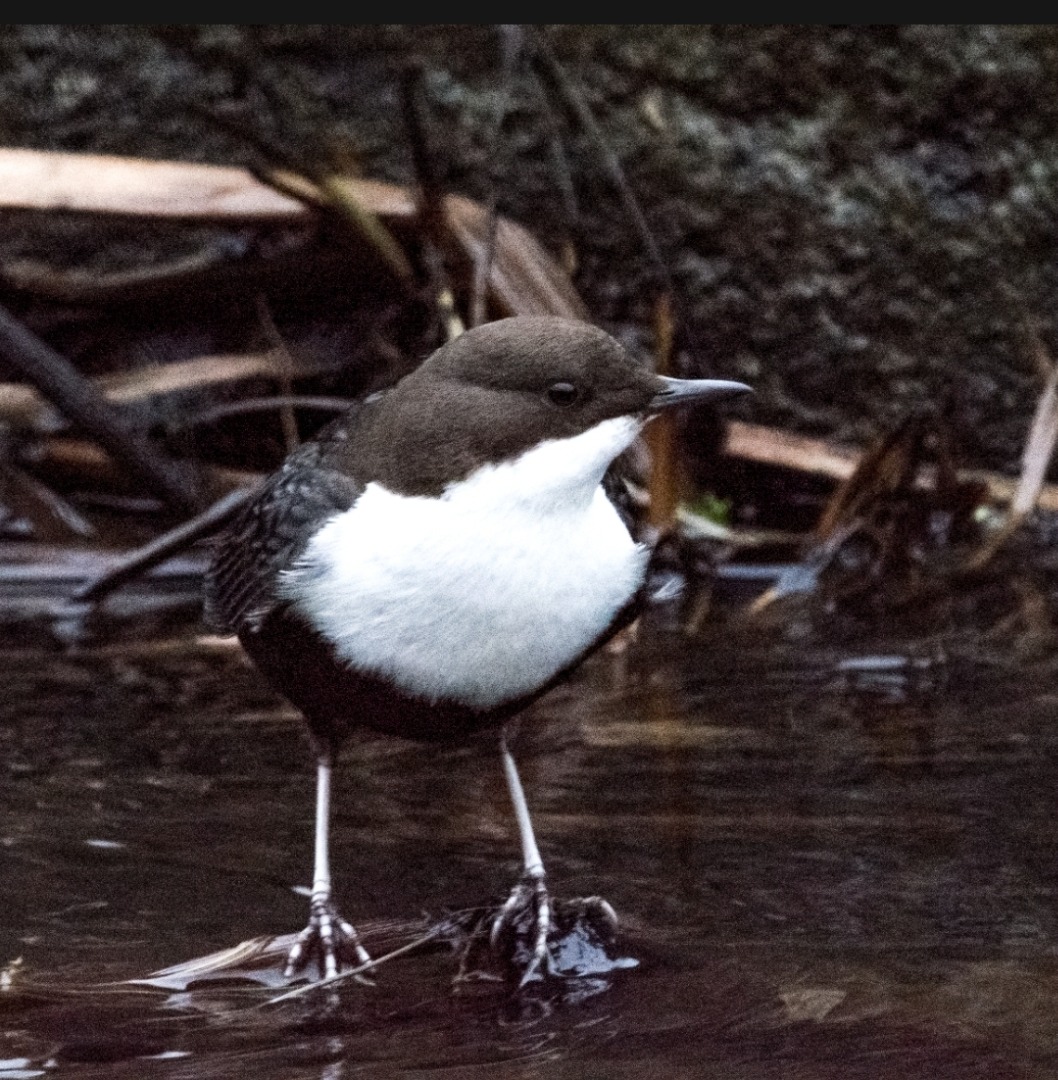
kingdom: Animalia
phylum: Chordata
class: Aves
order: Passeriformes
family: Cinclidae
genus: Cinclus
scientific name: Cinclus cinclus
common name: Vandstær
